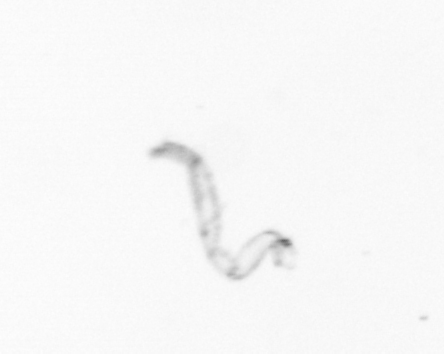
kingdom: Chromista
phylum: Ochrophyta
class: Bacillariophyceae
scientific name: Bacillariophyceae
